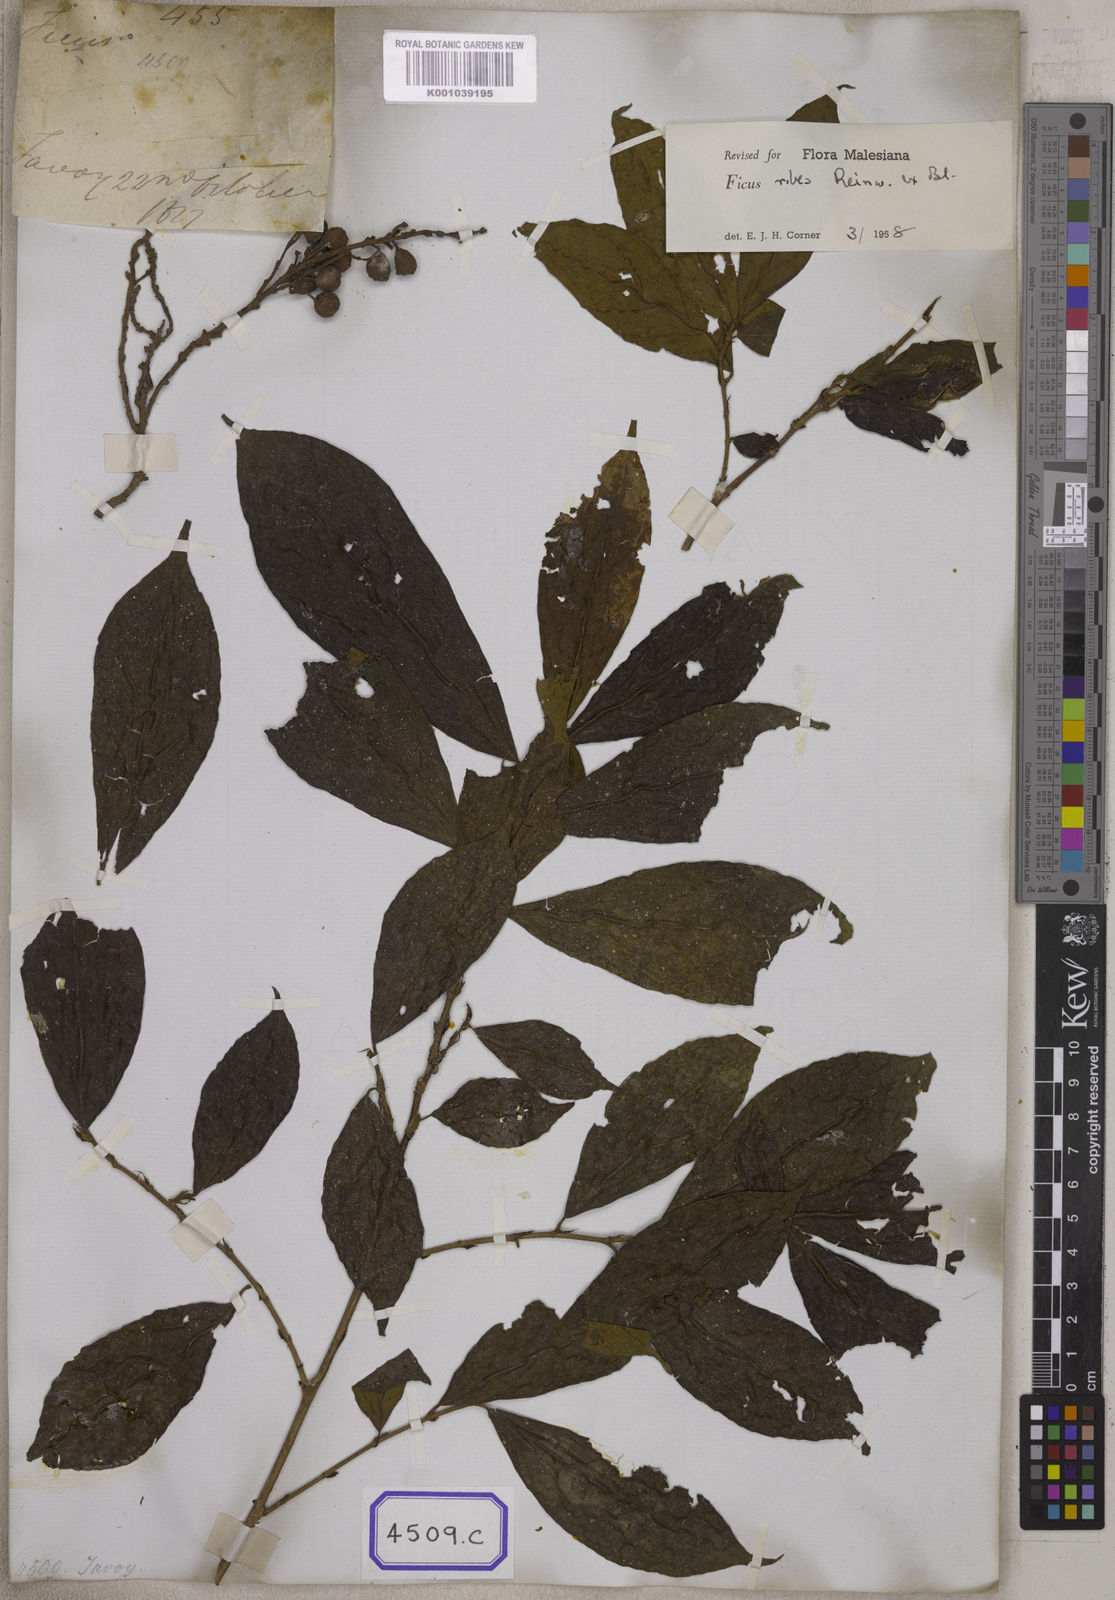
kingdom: Plantae
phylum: Tracheophyta
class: Magnoliopsida
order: Rosales
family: Moraceae
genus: Ficus
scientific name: Ficus copiosa
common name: Plentiful fig
